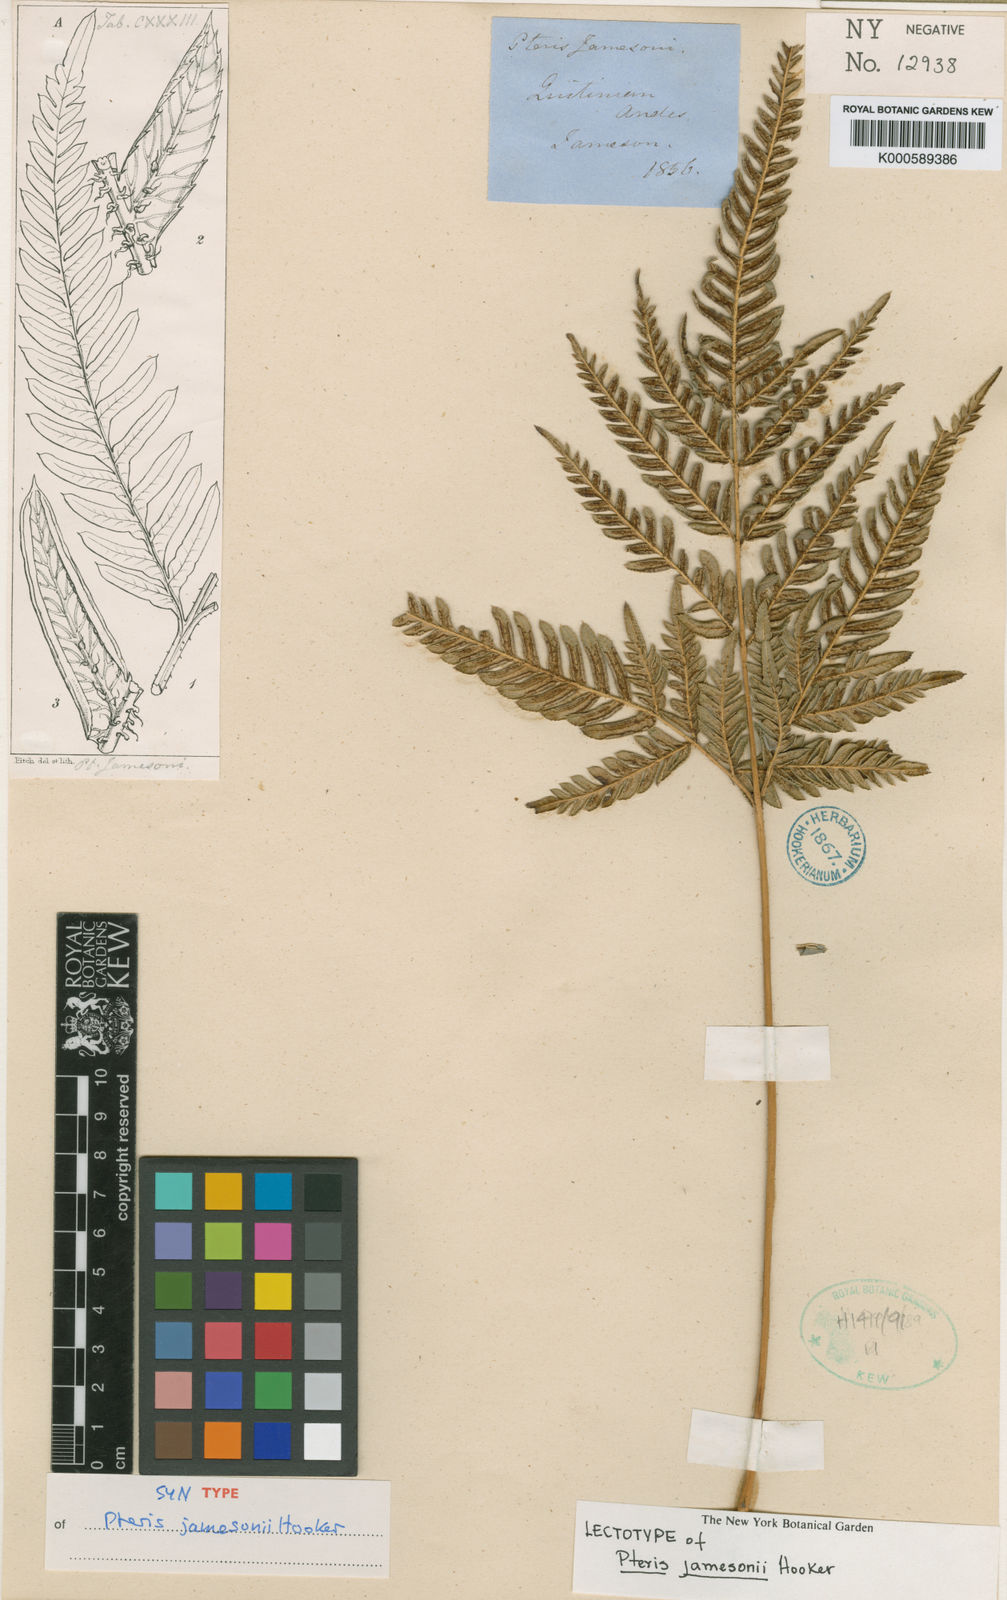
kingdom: Plantae
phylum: Tracheophyta
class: Polypodiopsida
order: Polypodiales
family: Pteridaceae
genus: Pteris
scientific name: Pteris coriacea
